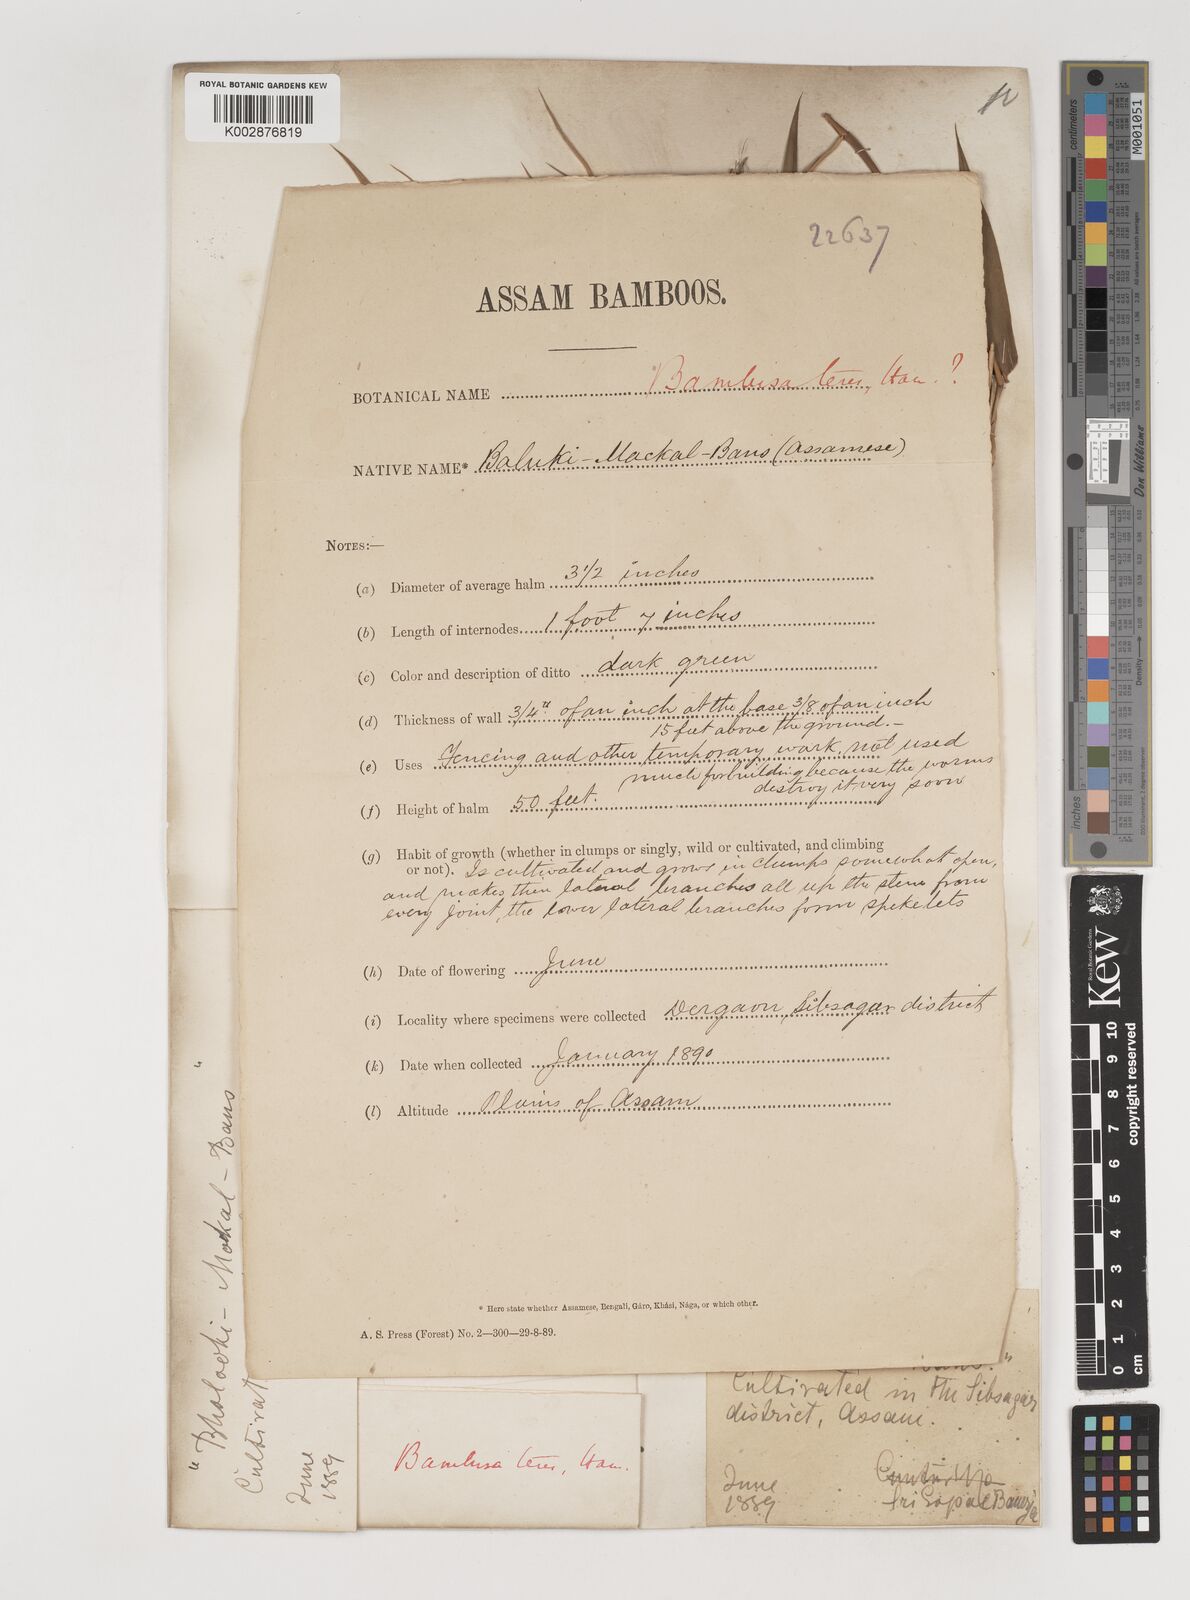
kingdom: Plantae
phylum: Tracheophyta
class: Liliopsida
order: Poales
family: Poaceae
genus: Bambusa
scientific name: Bambusa teres
